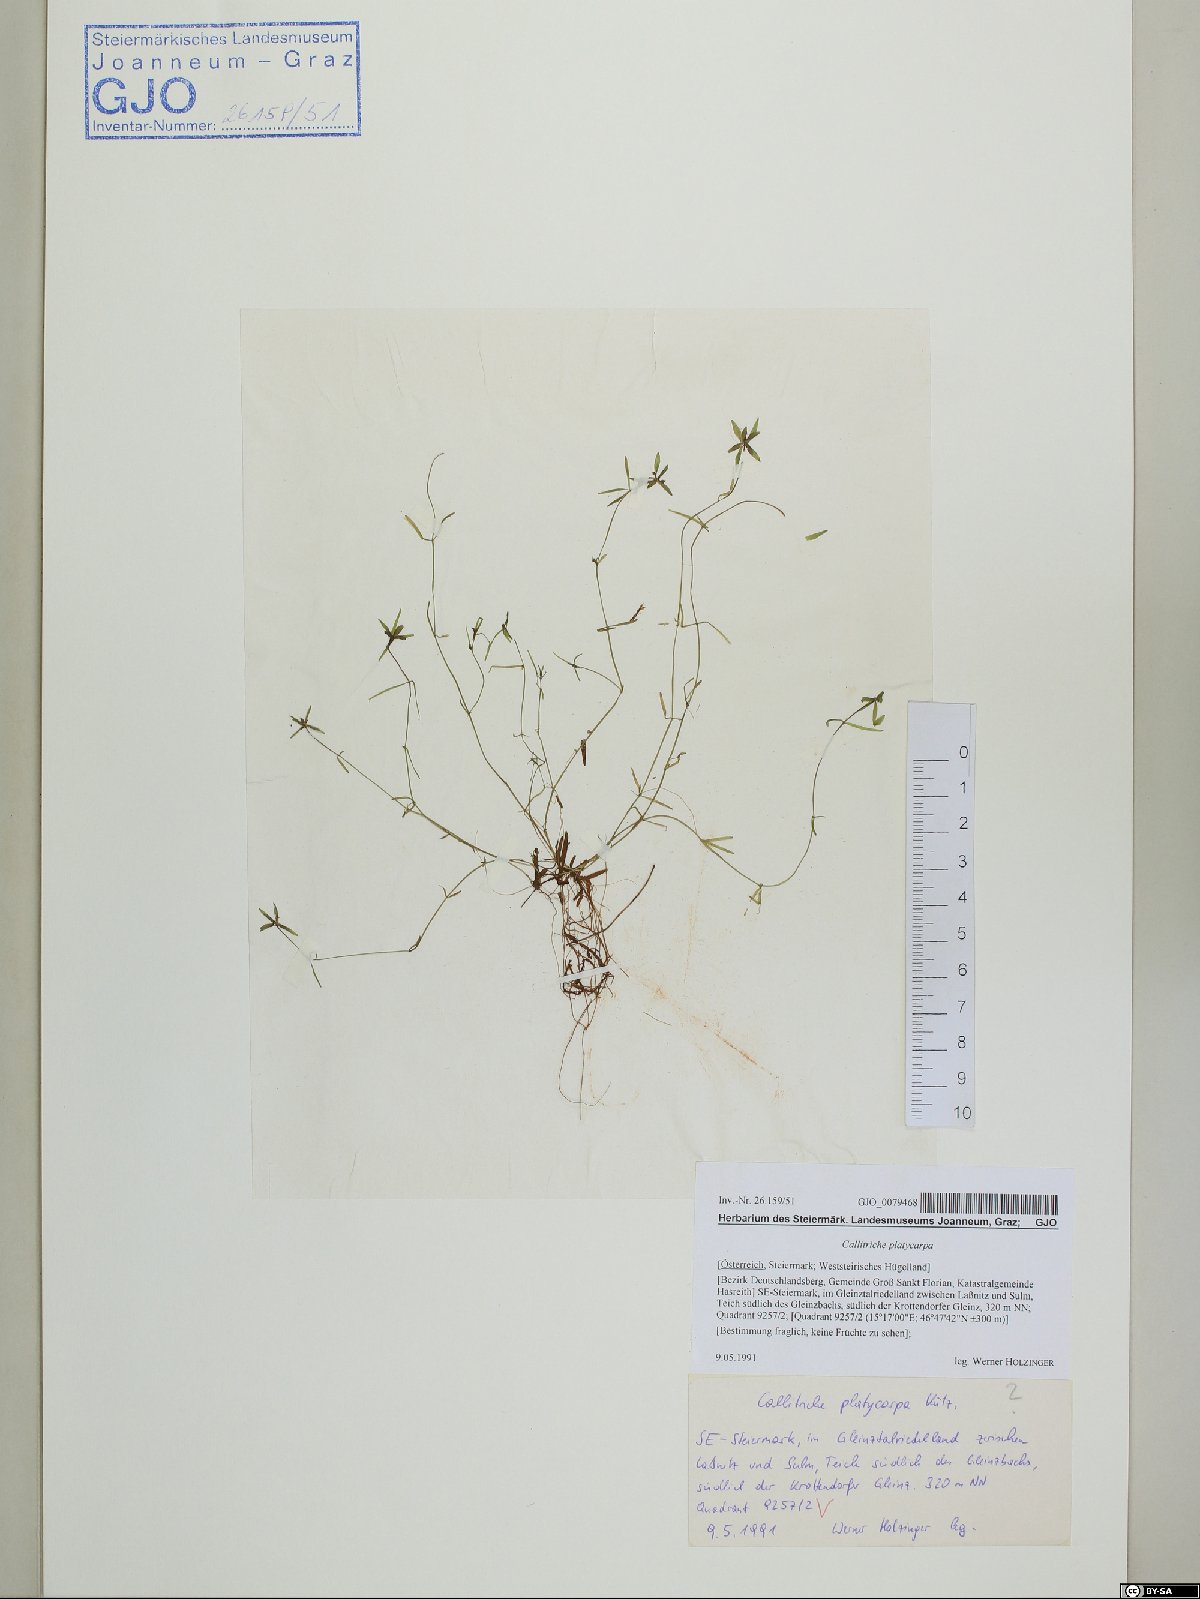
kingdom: Plantae
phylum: Tracheophyta
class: Magnoliopsida
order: Lamiales
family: Plantaginaceae
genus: Callitriche
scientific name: Callitriche platycarpa
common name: Various-leaved water-starwort
